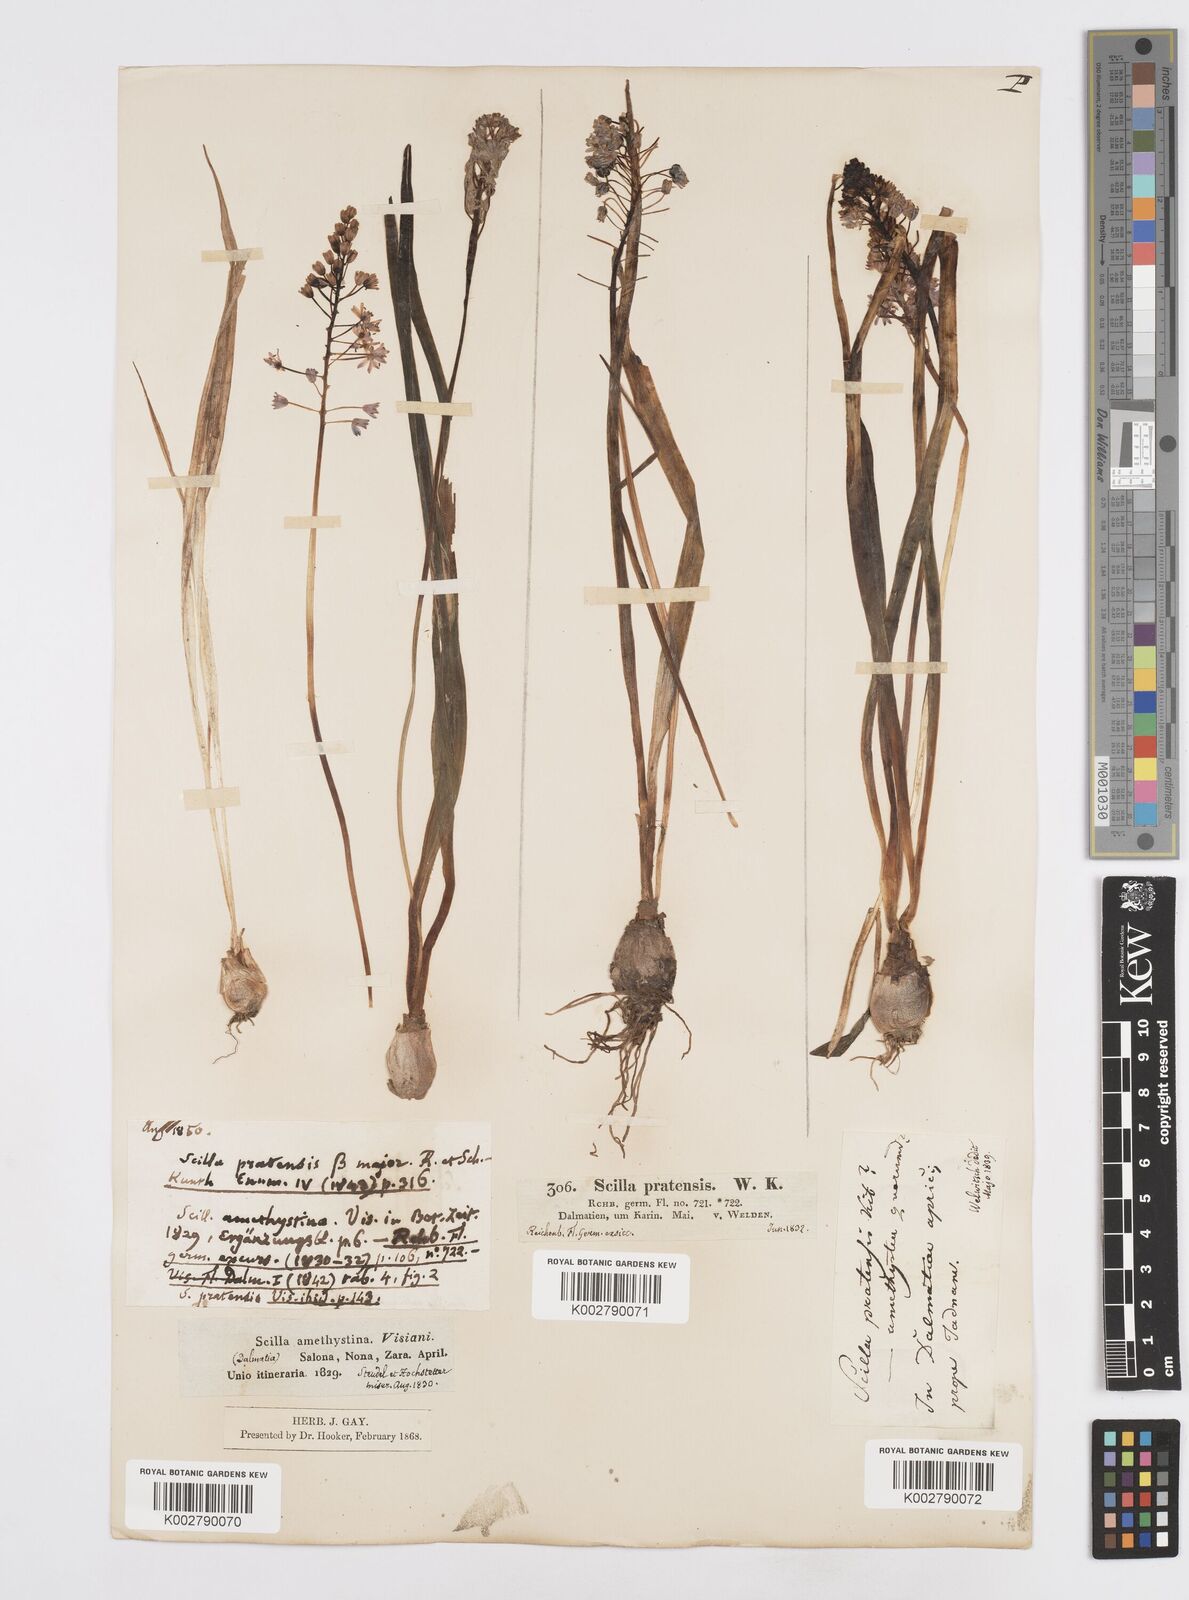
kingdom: Plantae
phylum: Tracheophyta
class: Liliopsida
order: Asparagales
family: Asparagaceae
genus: Scilla
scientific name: Scilla litardierei
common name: Amethyst meadow squill
